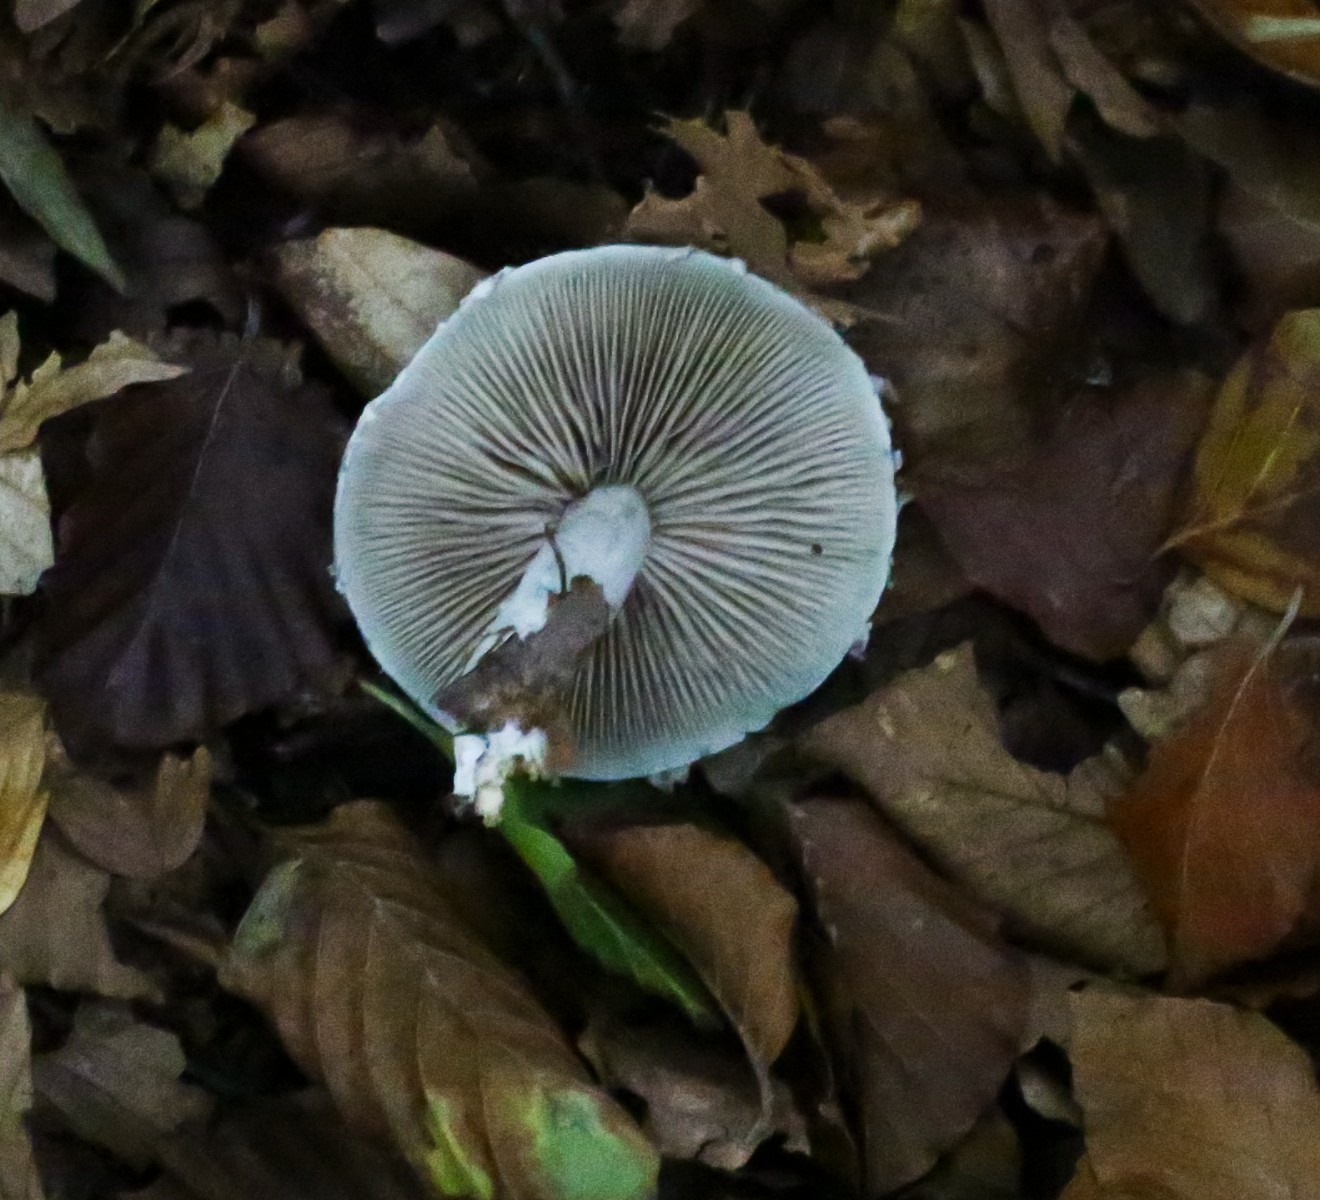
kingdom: Fungi
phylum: Basidiomycota
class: Agaricomycetes
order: Agaricales
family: Strophariaceae
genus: Stropharia
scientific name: Stropharia cyanea
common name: blågrøn bredblad
